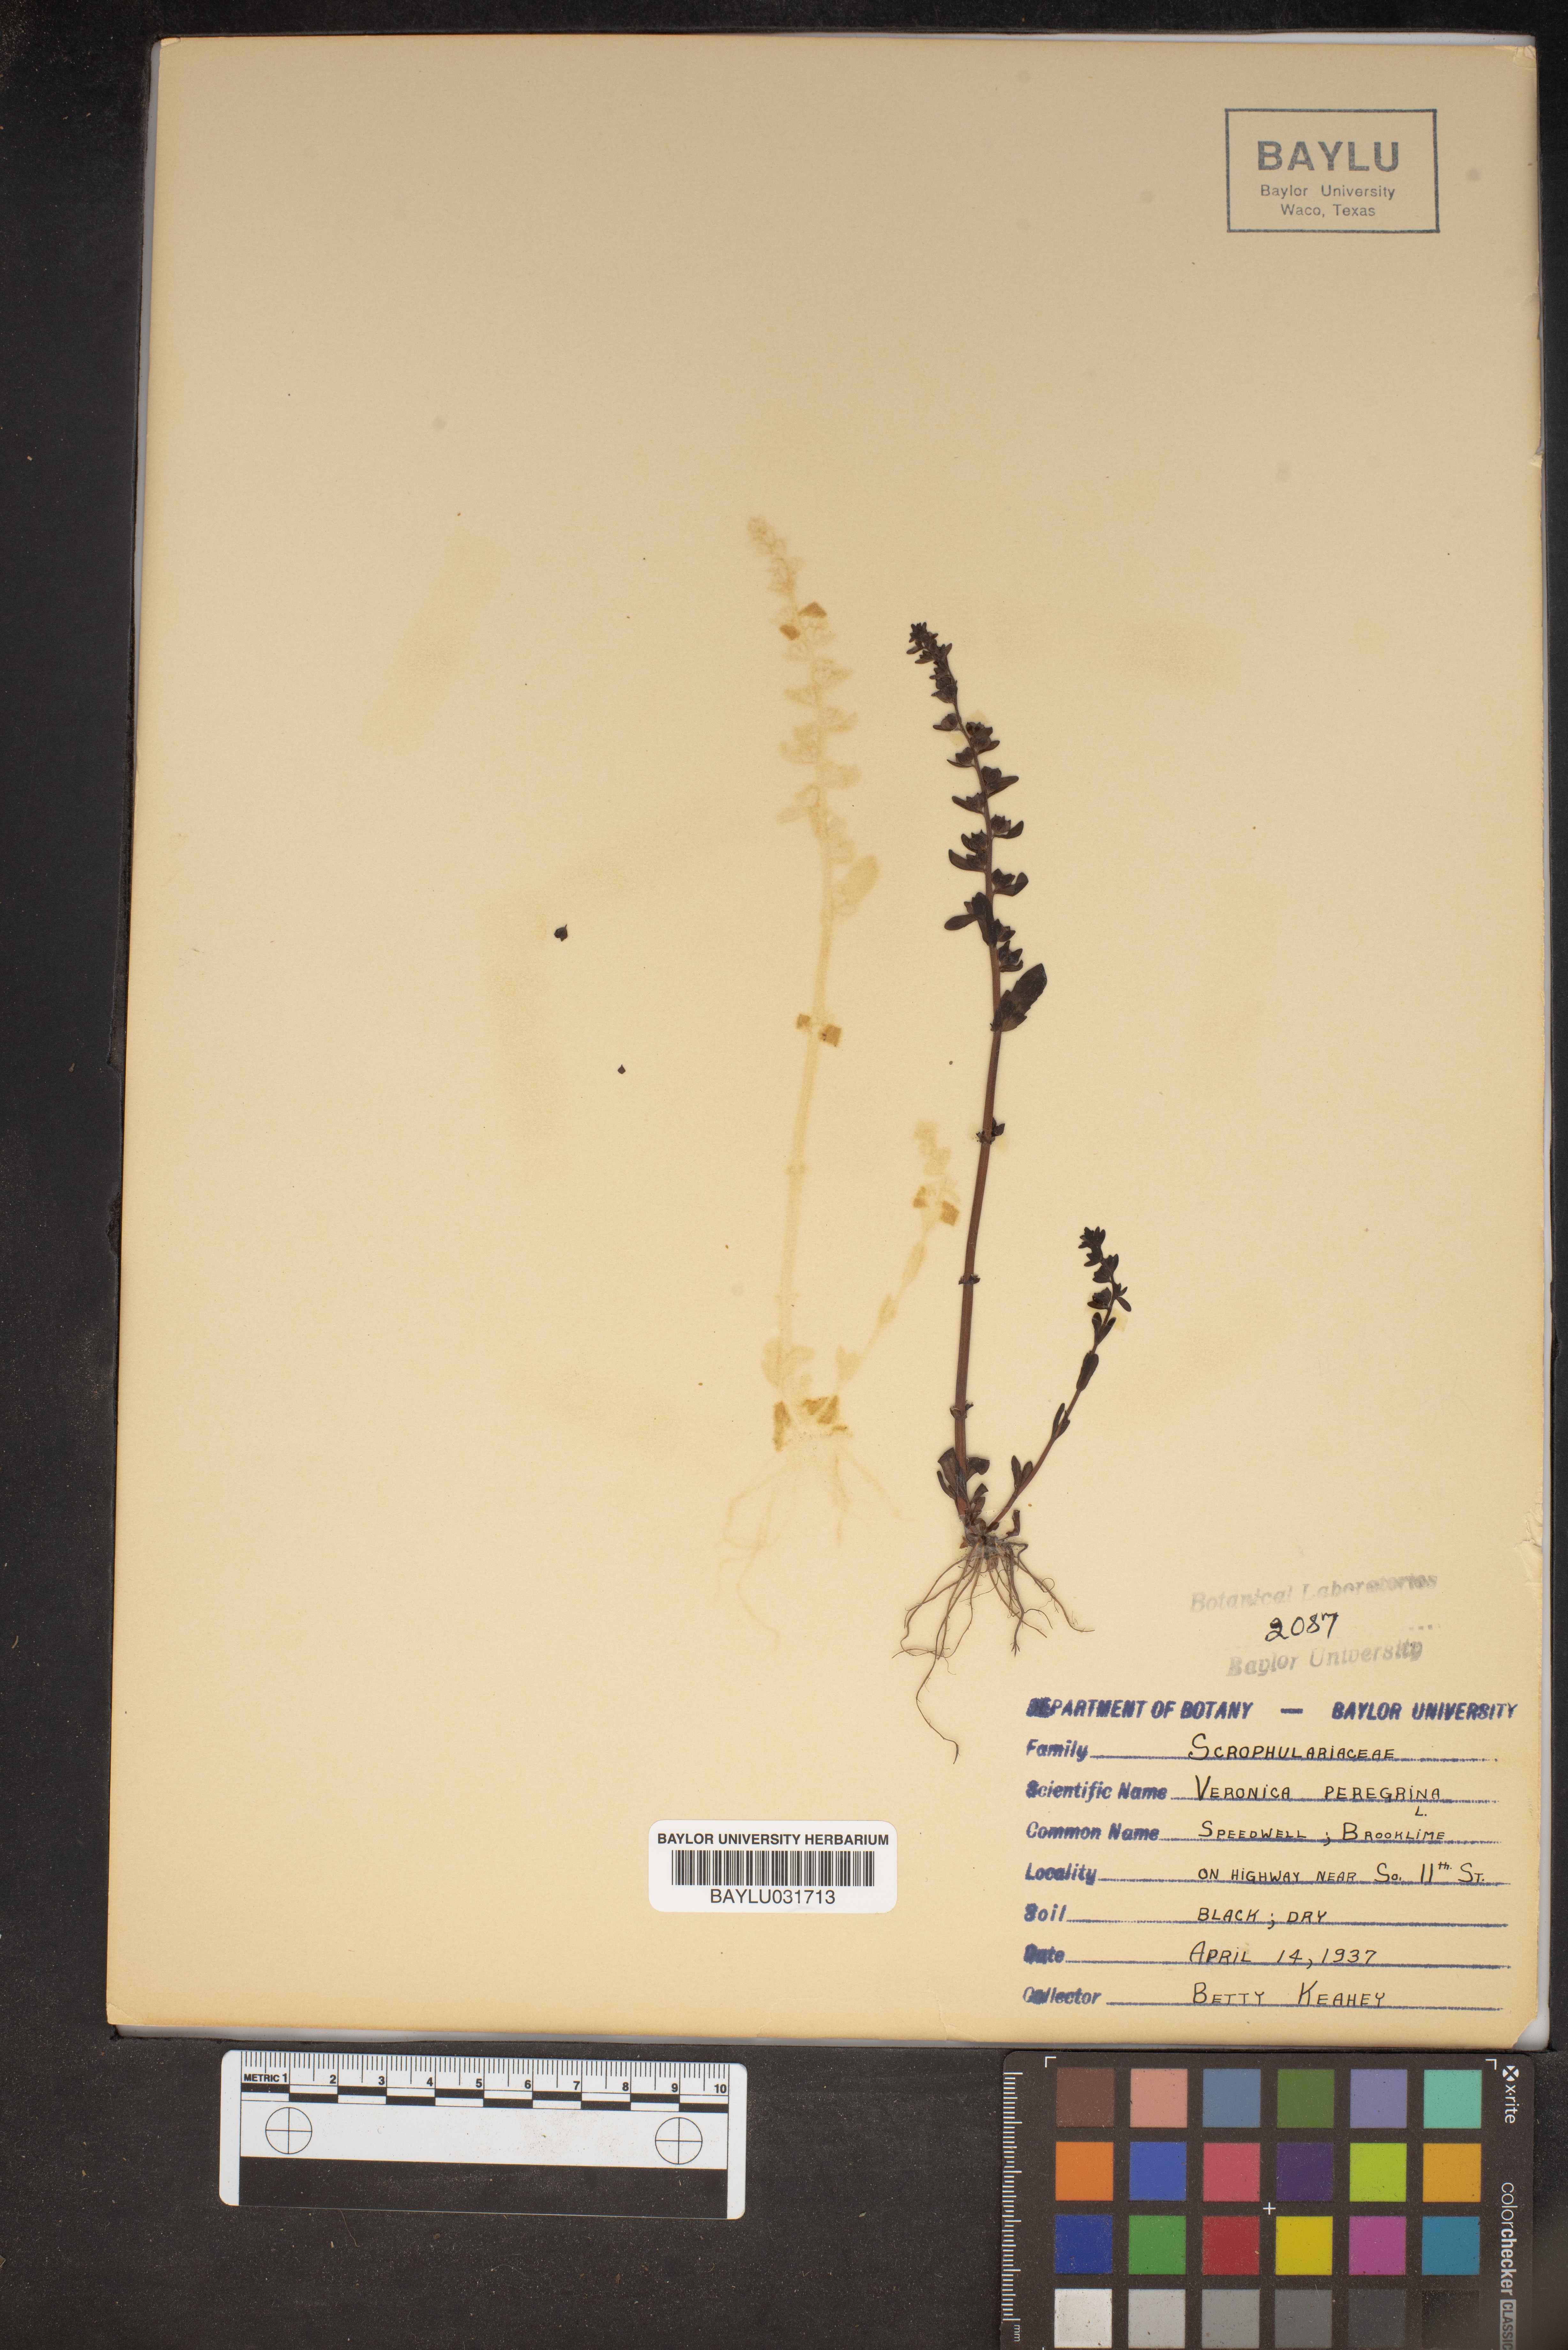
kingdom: Plantae
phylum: Tracheophyta
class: Magnoliopsida
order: Lamiales
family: Plantaginaceae
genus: Veronica
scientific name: Veronica peregrina
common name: Neckweed
